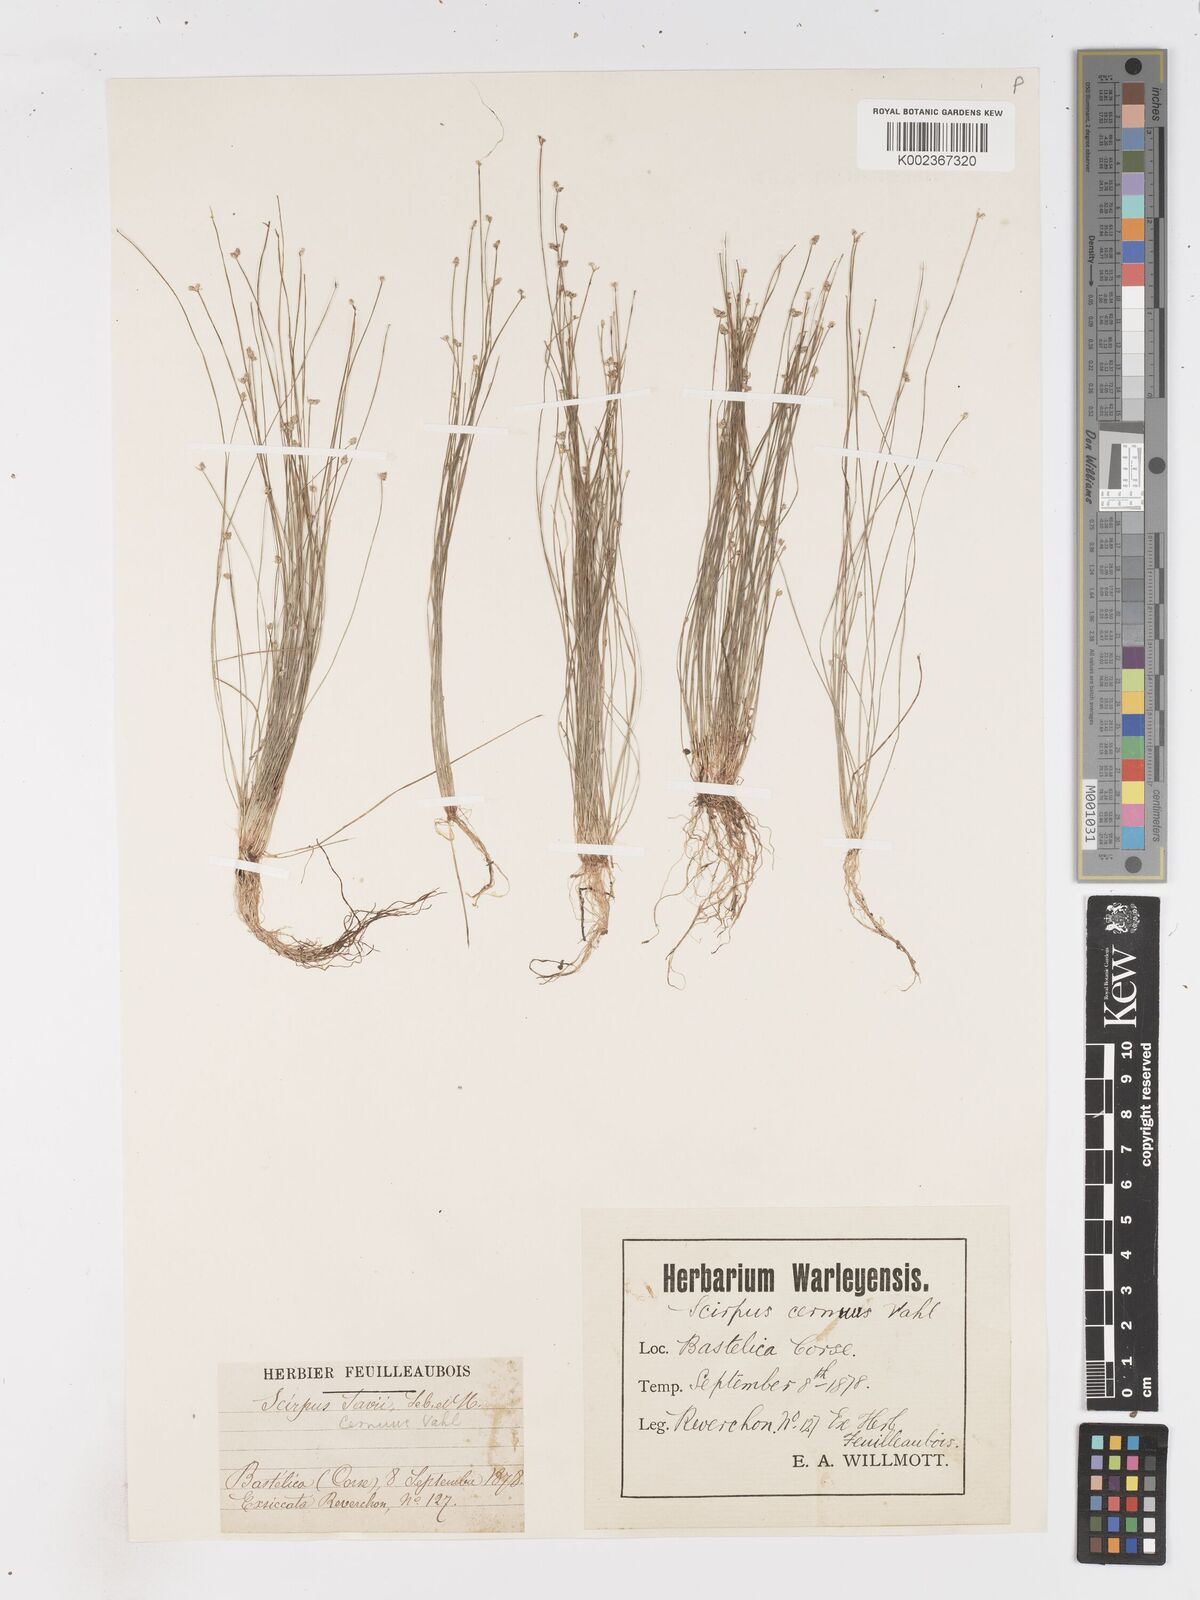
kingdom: Plantae
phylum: Tracheophyta
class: Liliopsida
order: Poales
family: Cyperaceae
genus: Isolepis
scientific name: Isolepis cernua
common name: Slender club-rush
